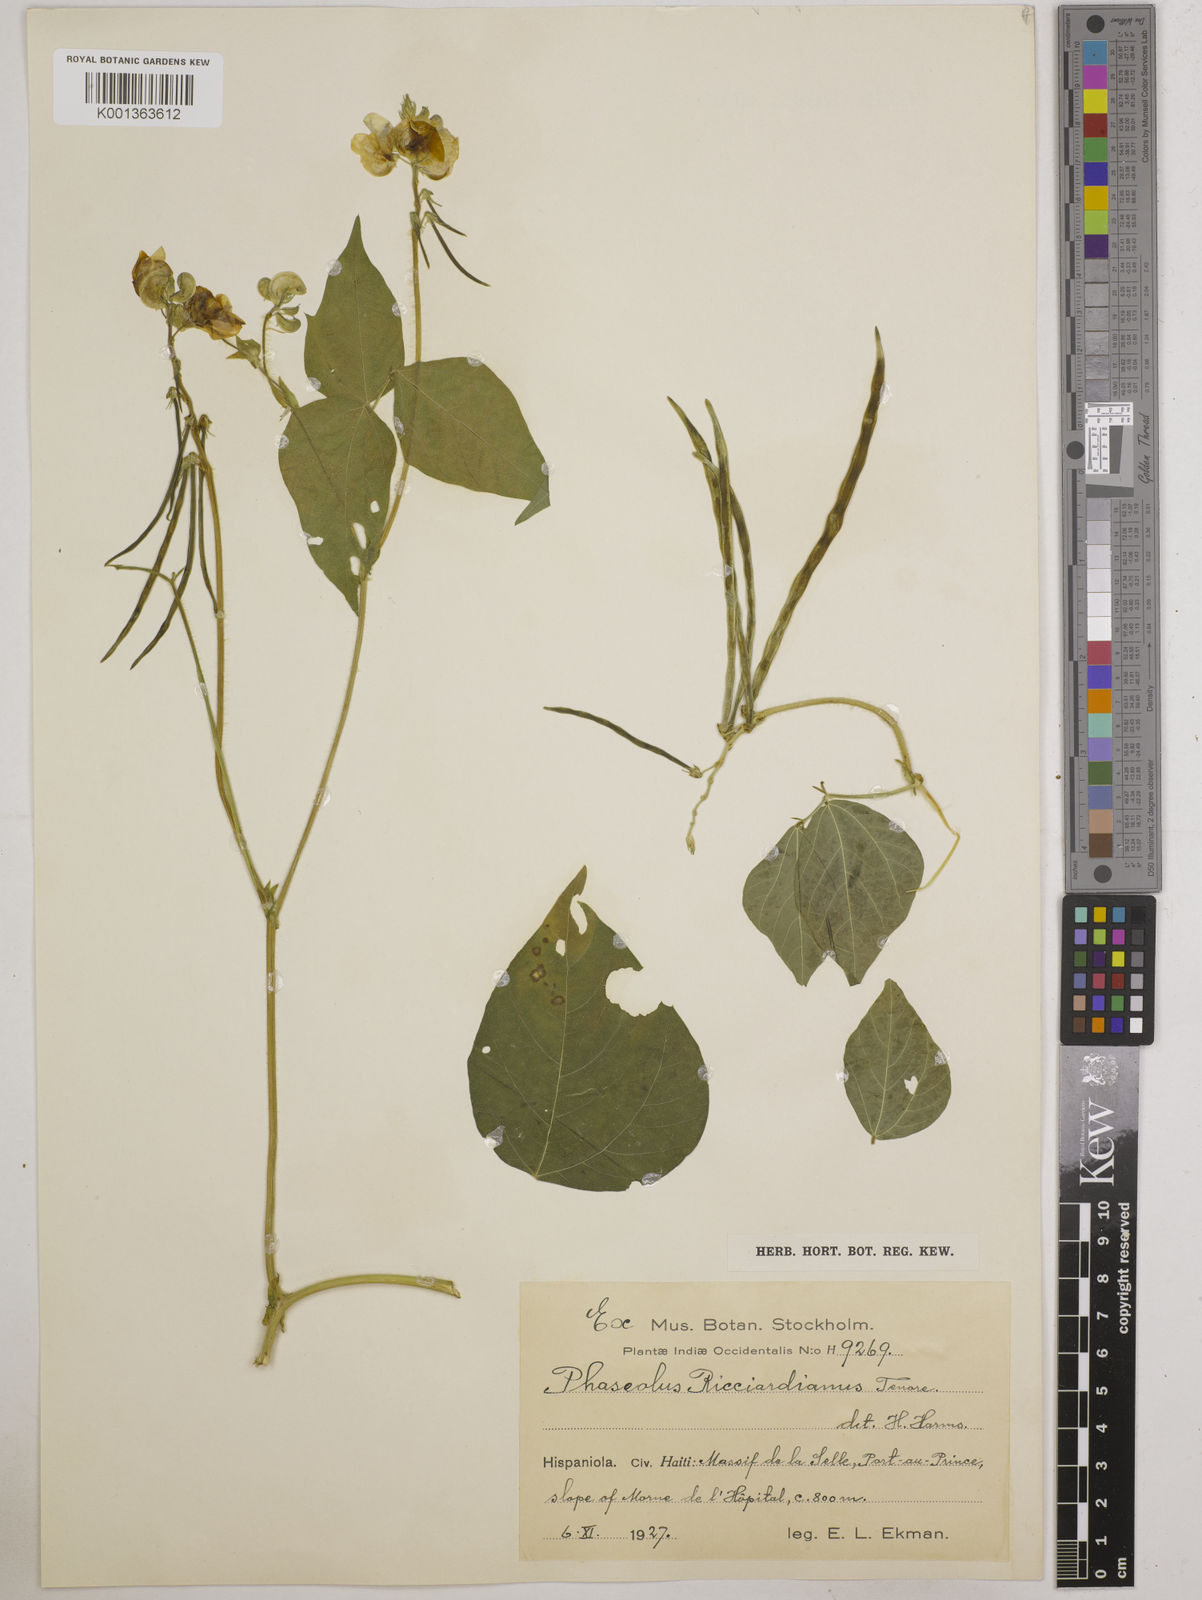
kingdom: Plantae
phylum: Tracheophyta
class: Magnoliopsida
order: Fabales
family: Fabaceae
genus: Vigna
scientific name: Vigna umbellata
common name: Oriental-bean
